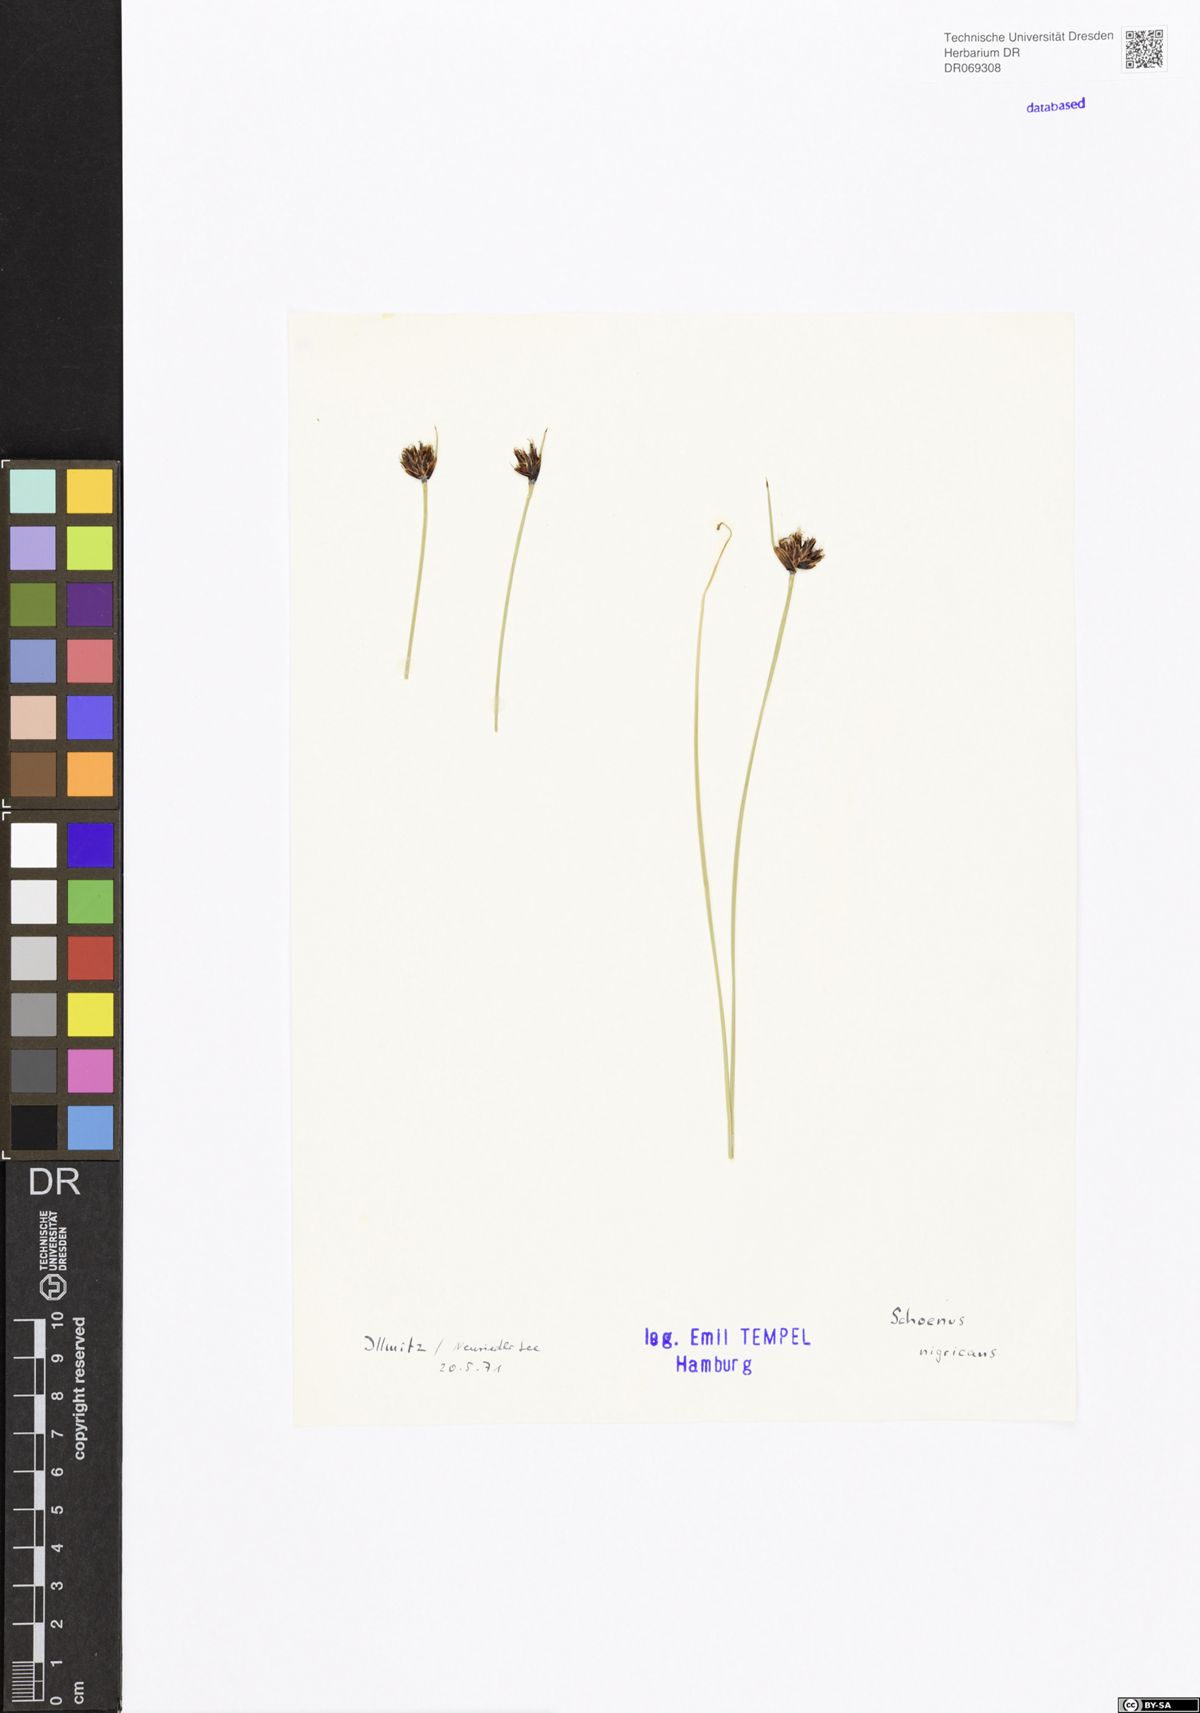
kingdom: Plantae
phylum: Tracheophyta
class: Liliopsida
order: Poales
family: Cyperaceae
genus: Schoenus
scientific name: Schoenus nigricans
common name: Black bog-rush
